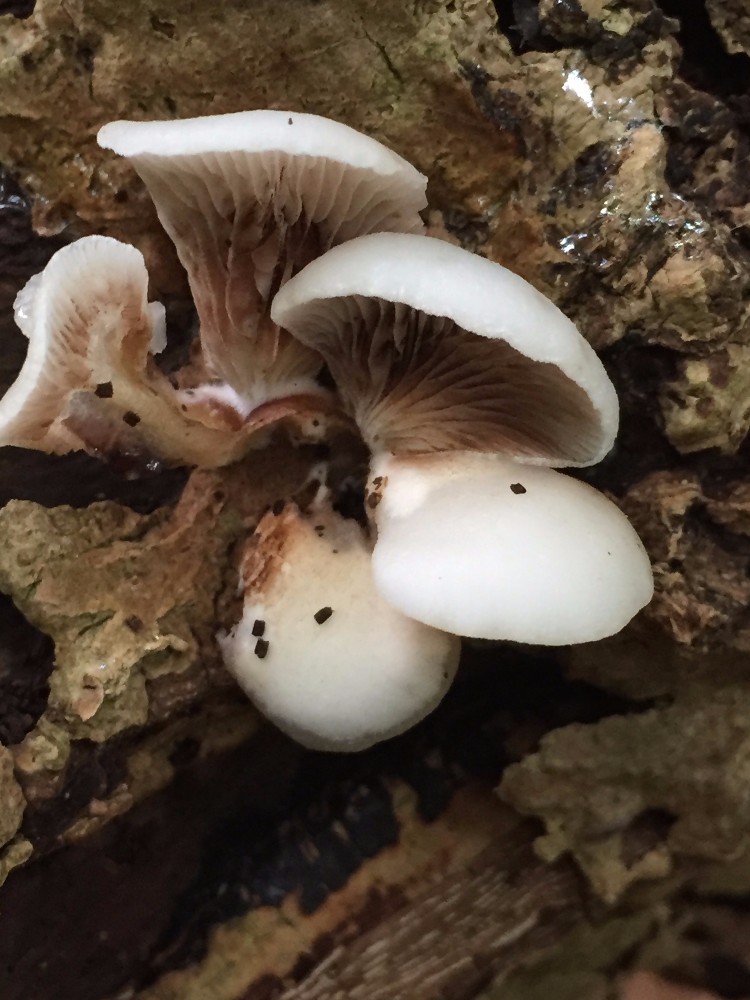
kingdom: Fungi
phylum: Basidiomycota
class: Agaricomycetes
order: Agaricales
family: Crepidotaceae
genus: Crepidotus
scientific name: Crepidotus
